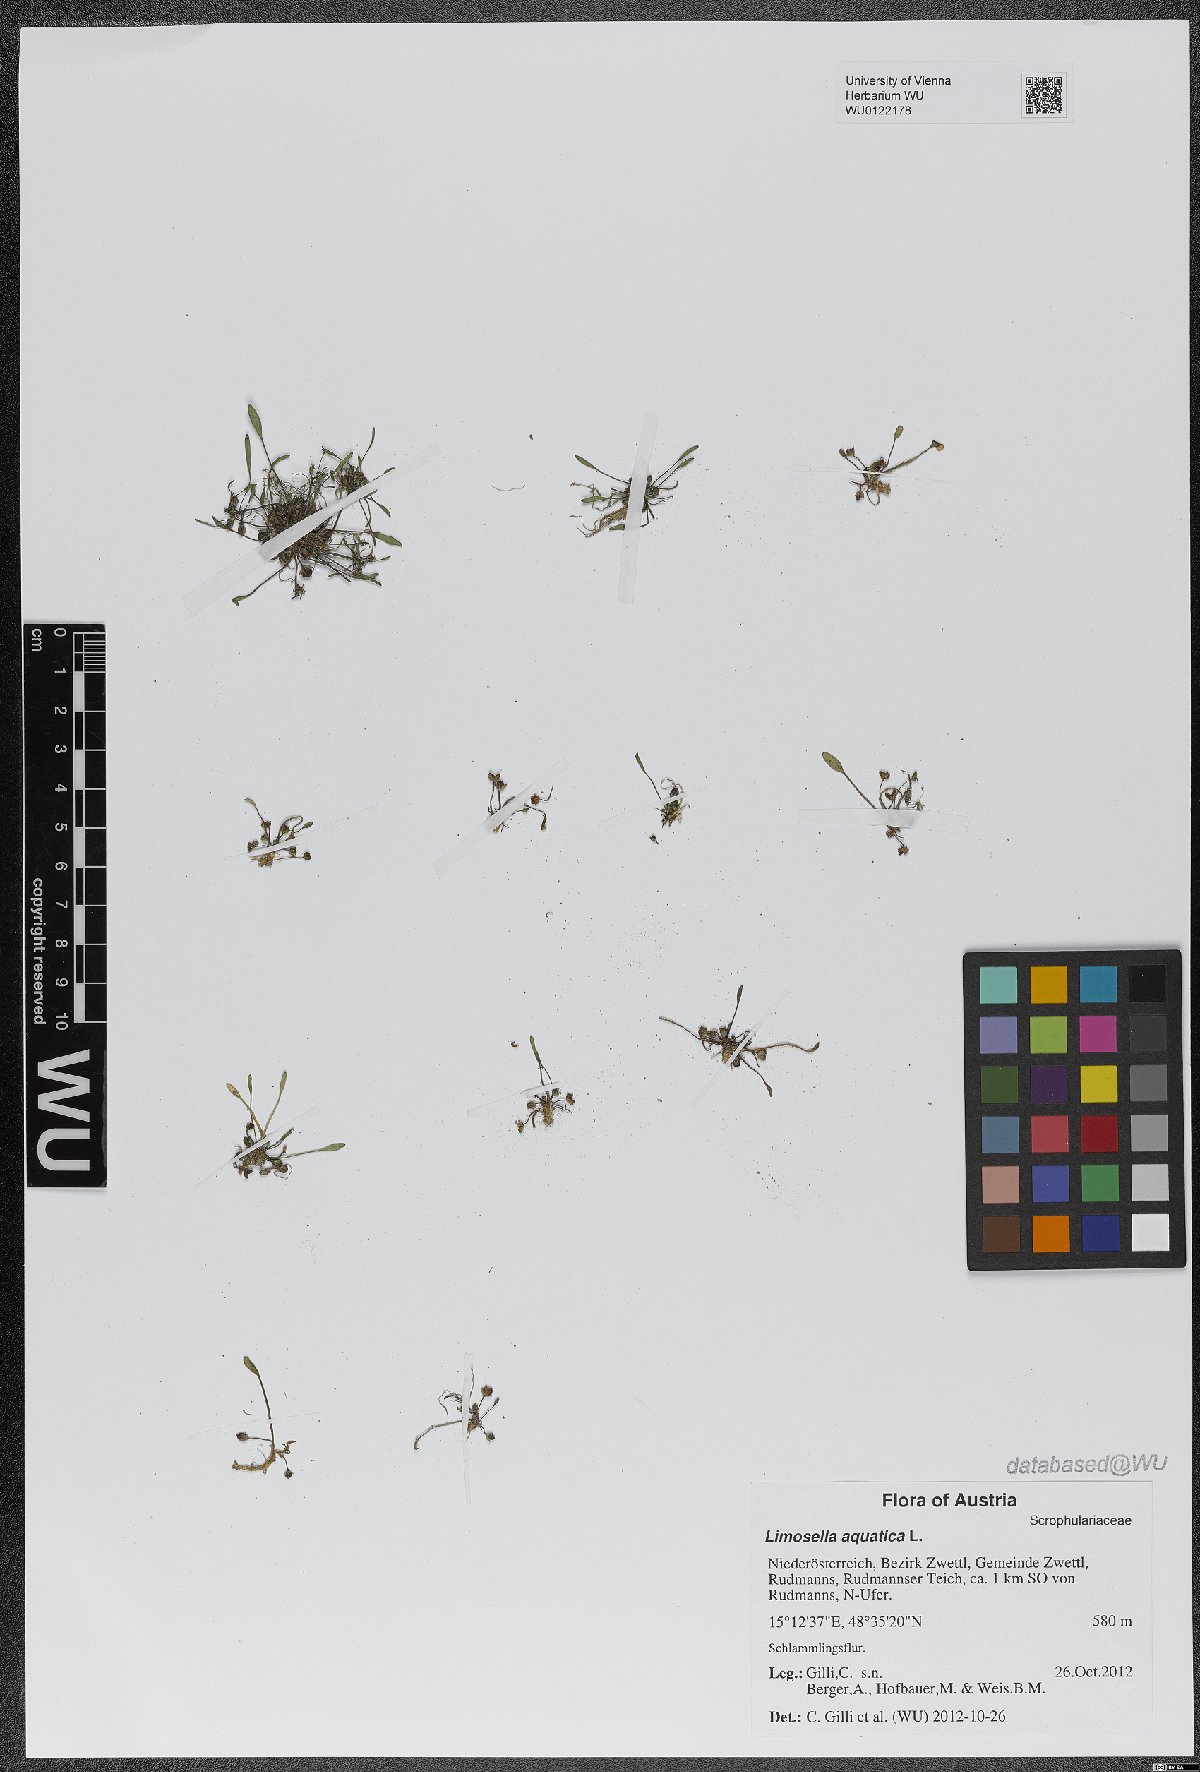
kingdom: Plantae
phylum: Tracheophyta
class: Magnoliopsida
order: Lamiales
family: Scrophulariaceae
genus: Limosella
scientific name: Limosella aquatica
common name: Mudwort
